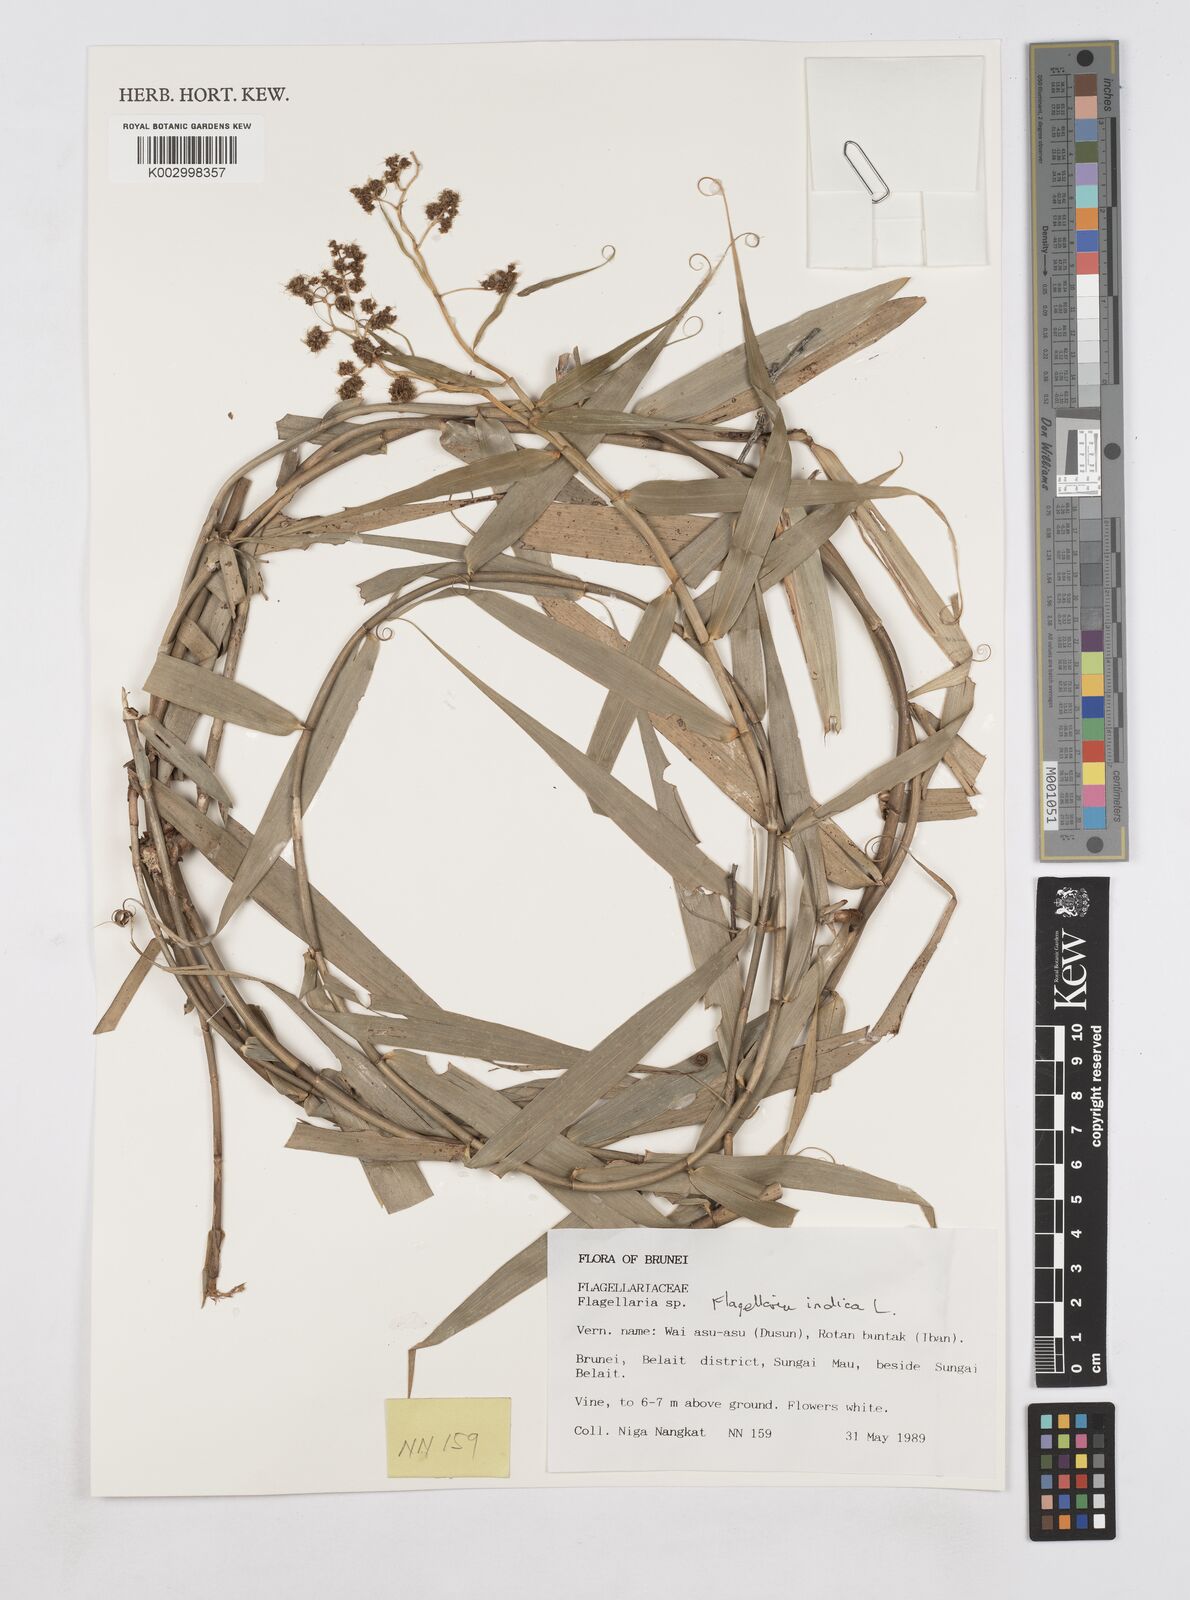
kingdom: Plantae
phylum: Tracheophyta
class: Liliopsida
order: Poales
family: Flagellariaceae
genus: Flagellaria
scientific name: Flagellaria indica
